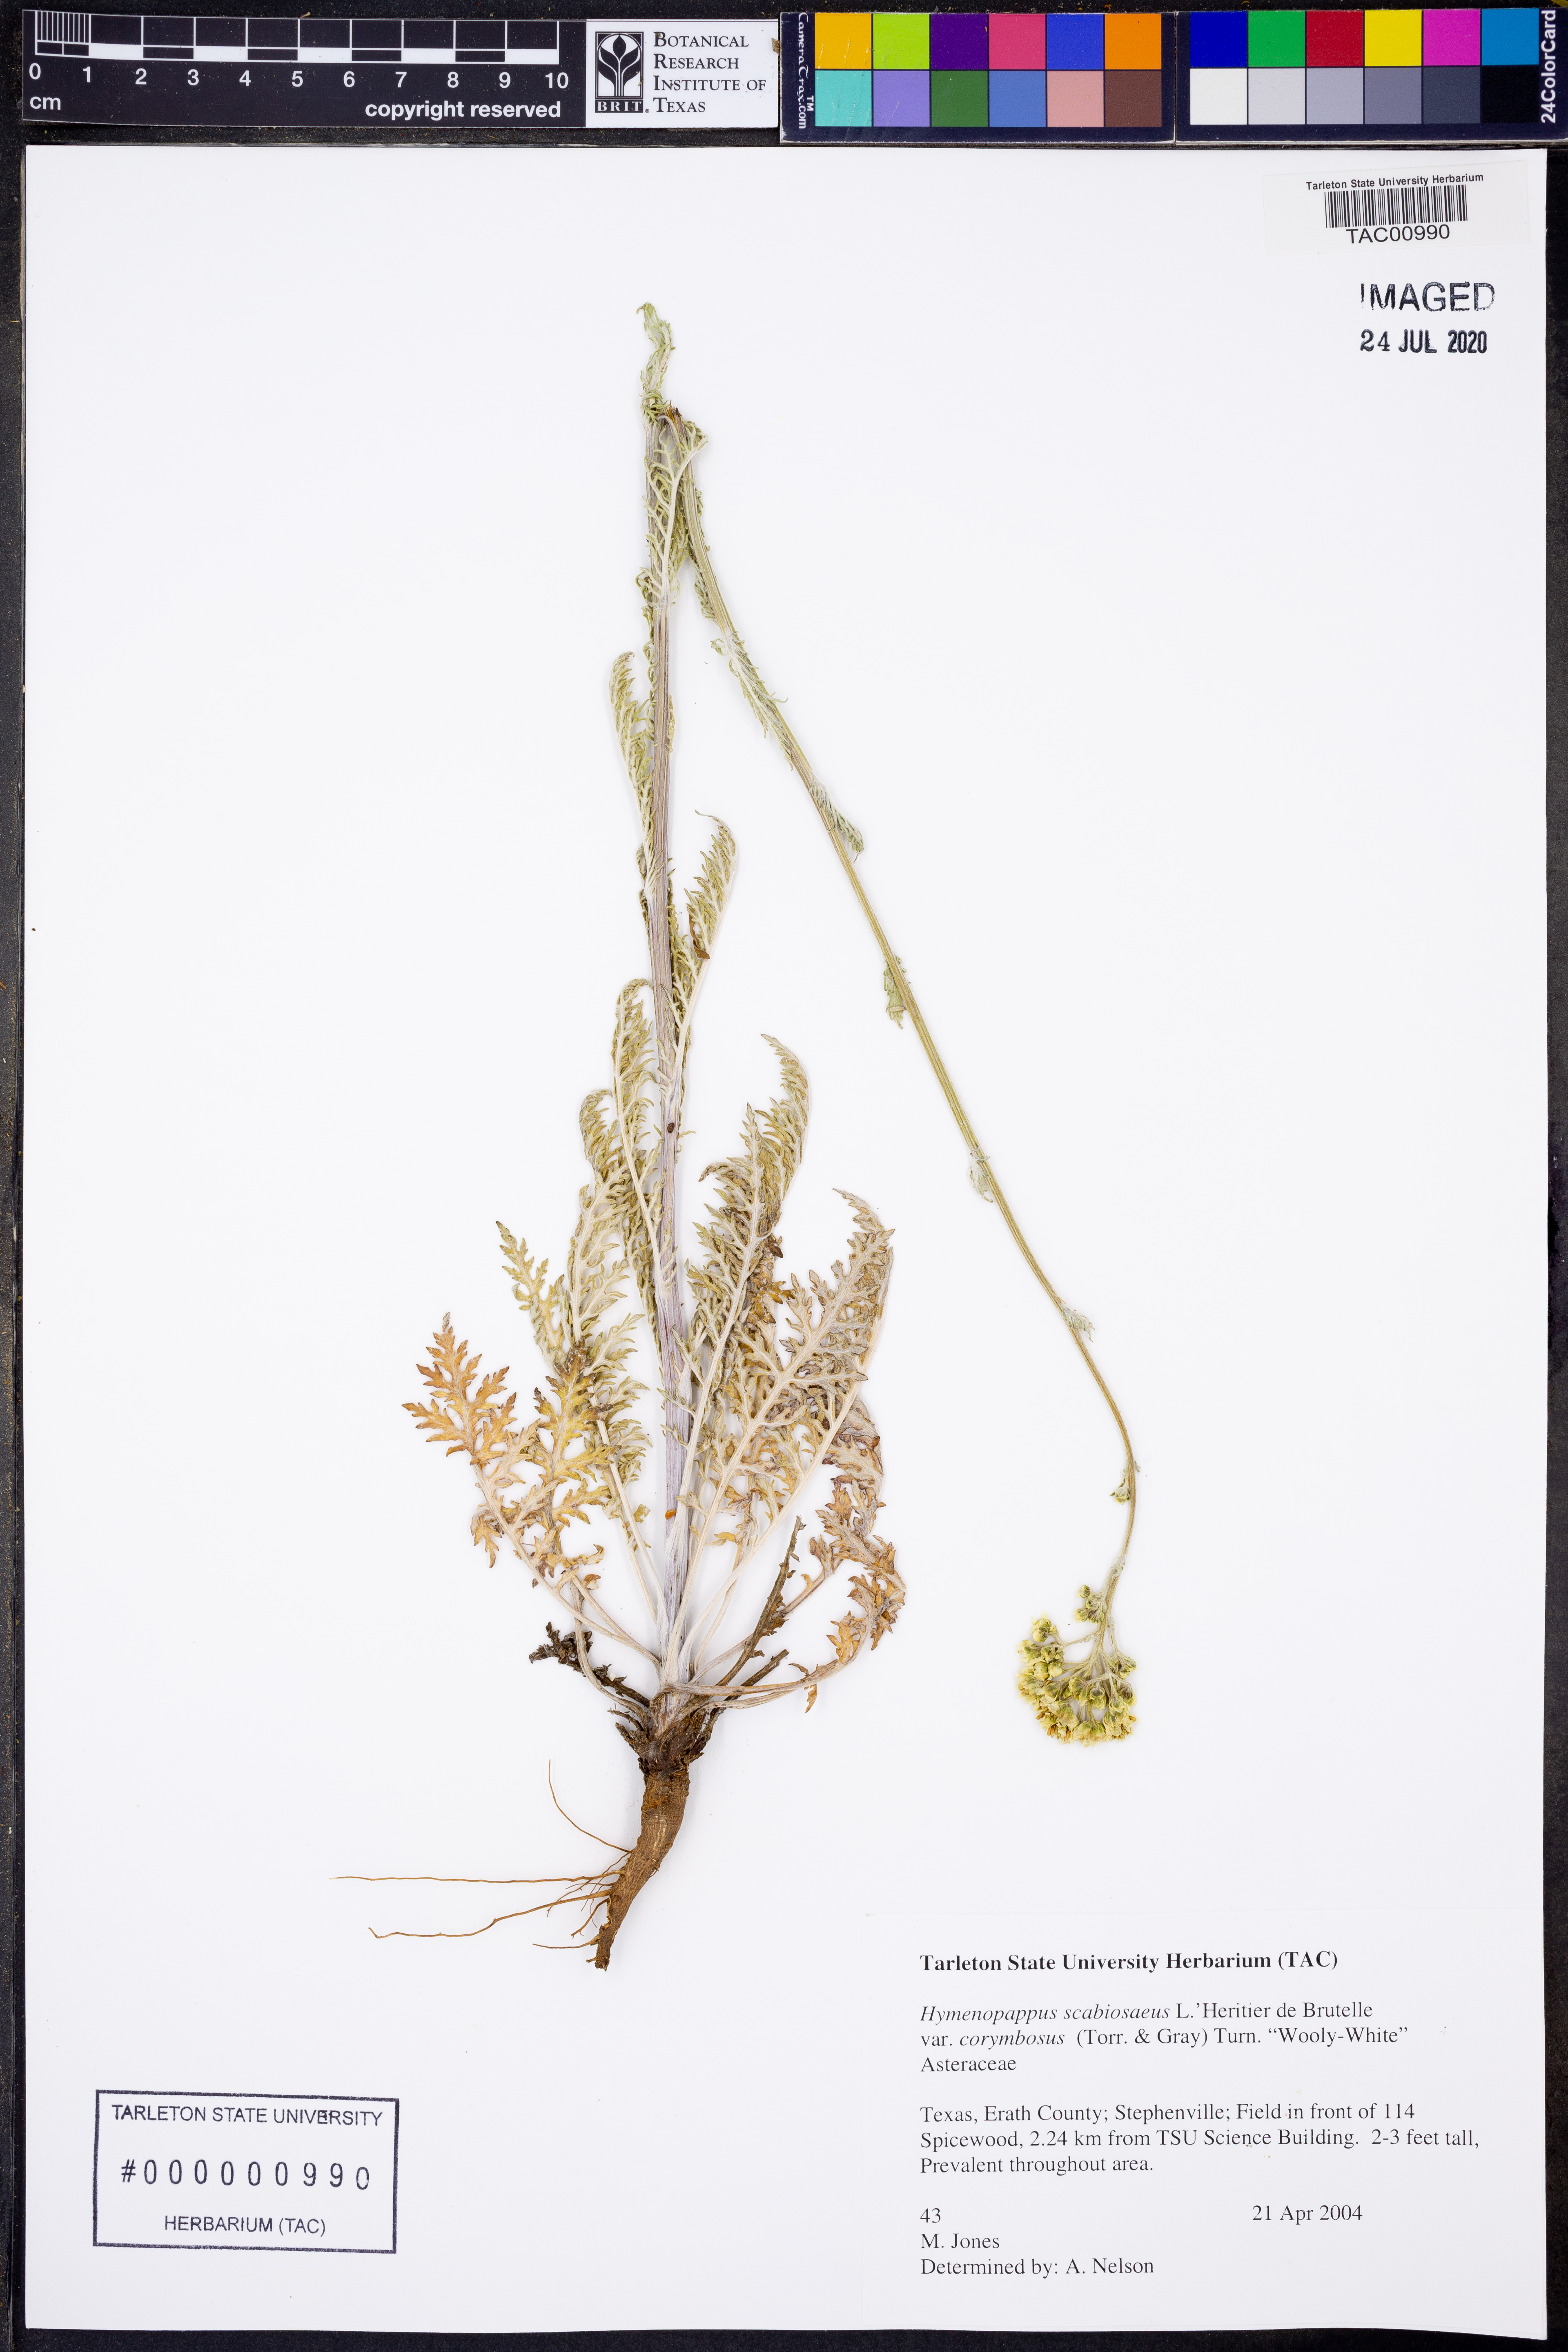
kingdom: Plantae
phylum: Tracheophyta
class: Magnoliopsida
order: Asterales
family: Asteraceae
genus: Hymenopappus
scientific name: Hymenopappus scabiosaeus
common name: Carolina woollywhite
